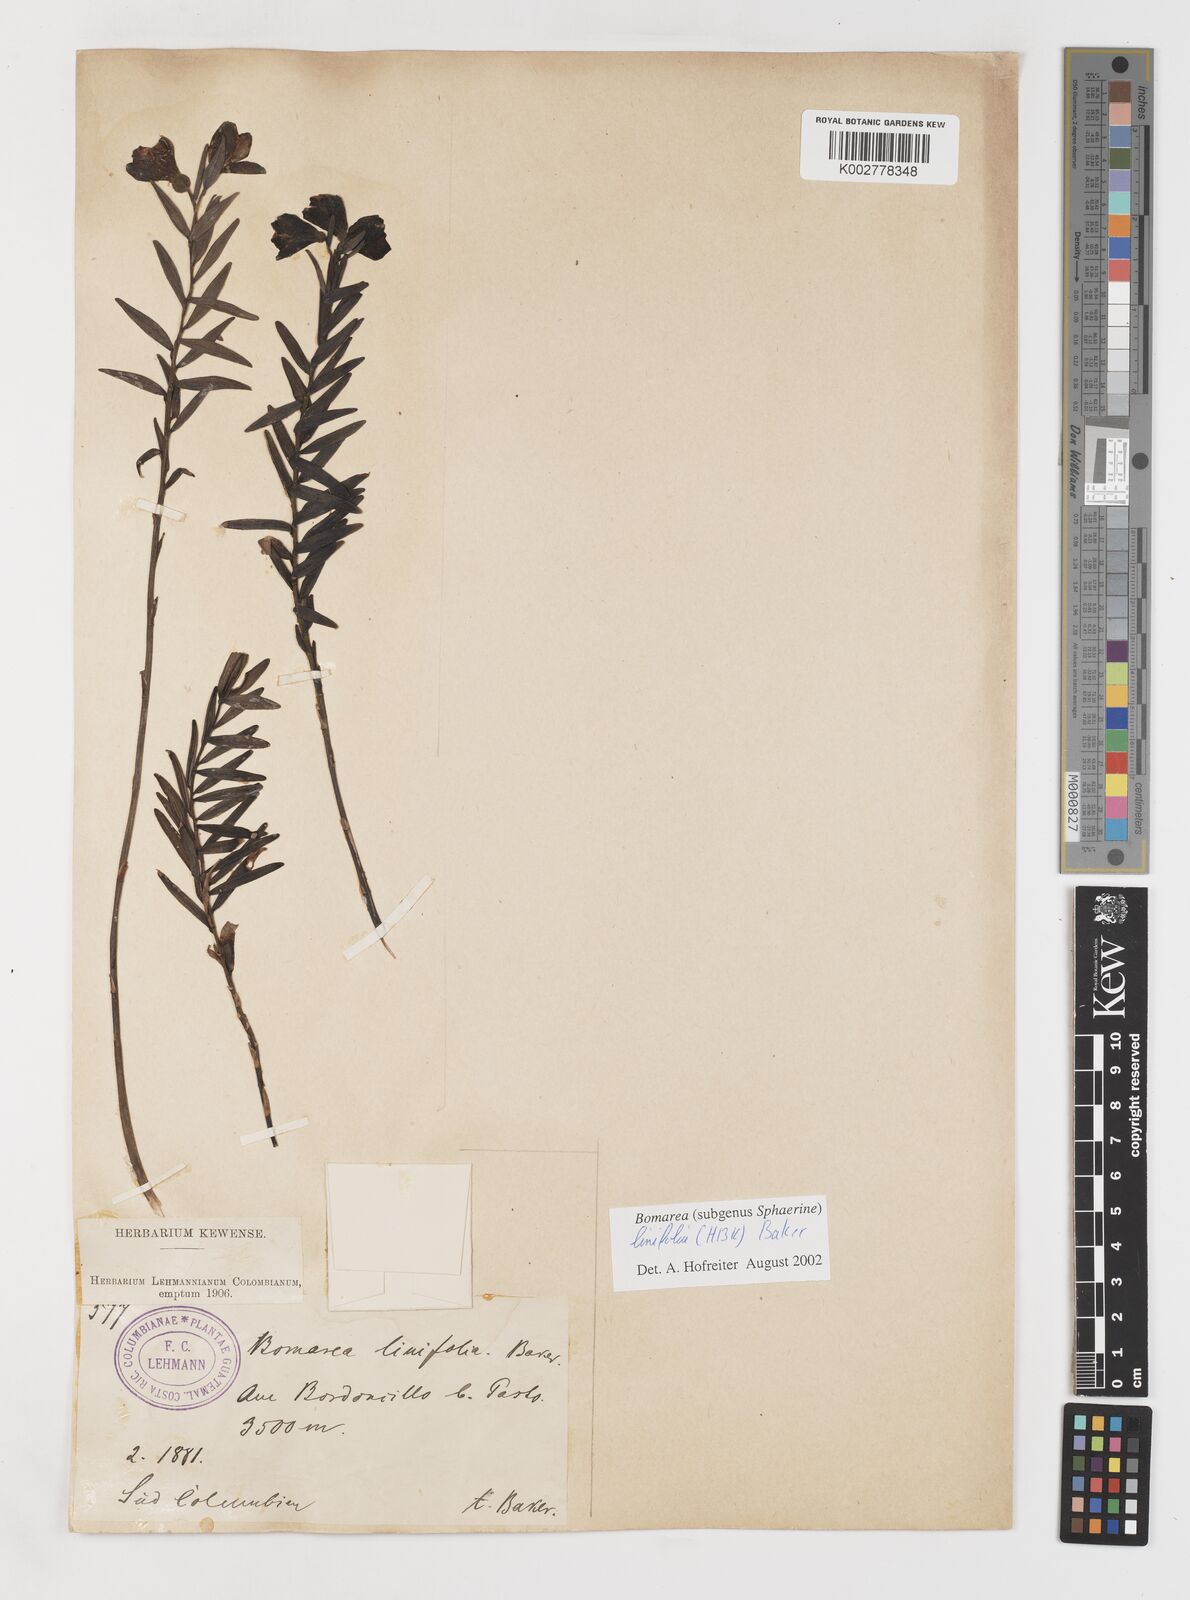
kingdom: Plantae
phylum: Tracheophyta
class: Liliopsida
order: Liliales
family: Alstroemeriaceae
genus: Bomarea
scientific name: Bomarea linifolia
